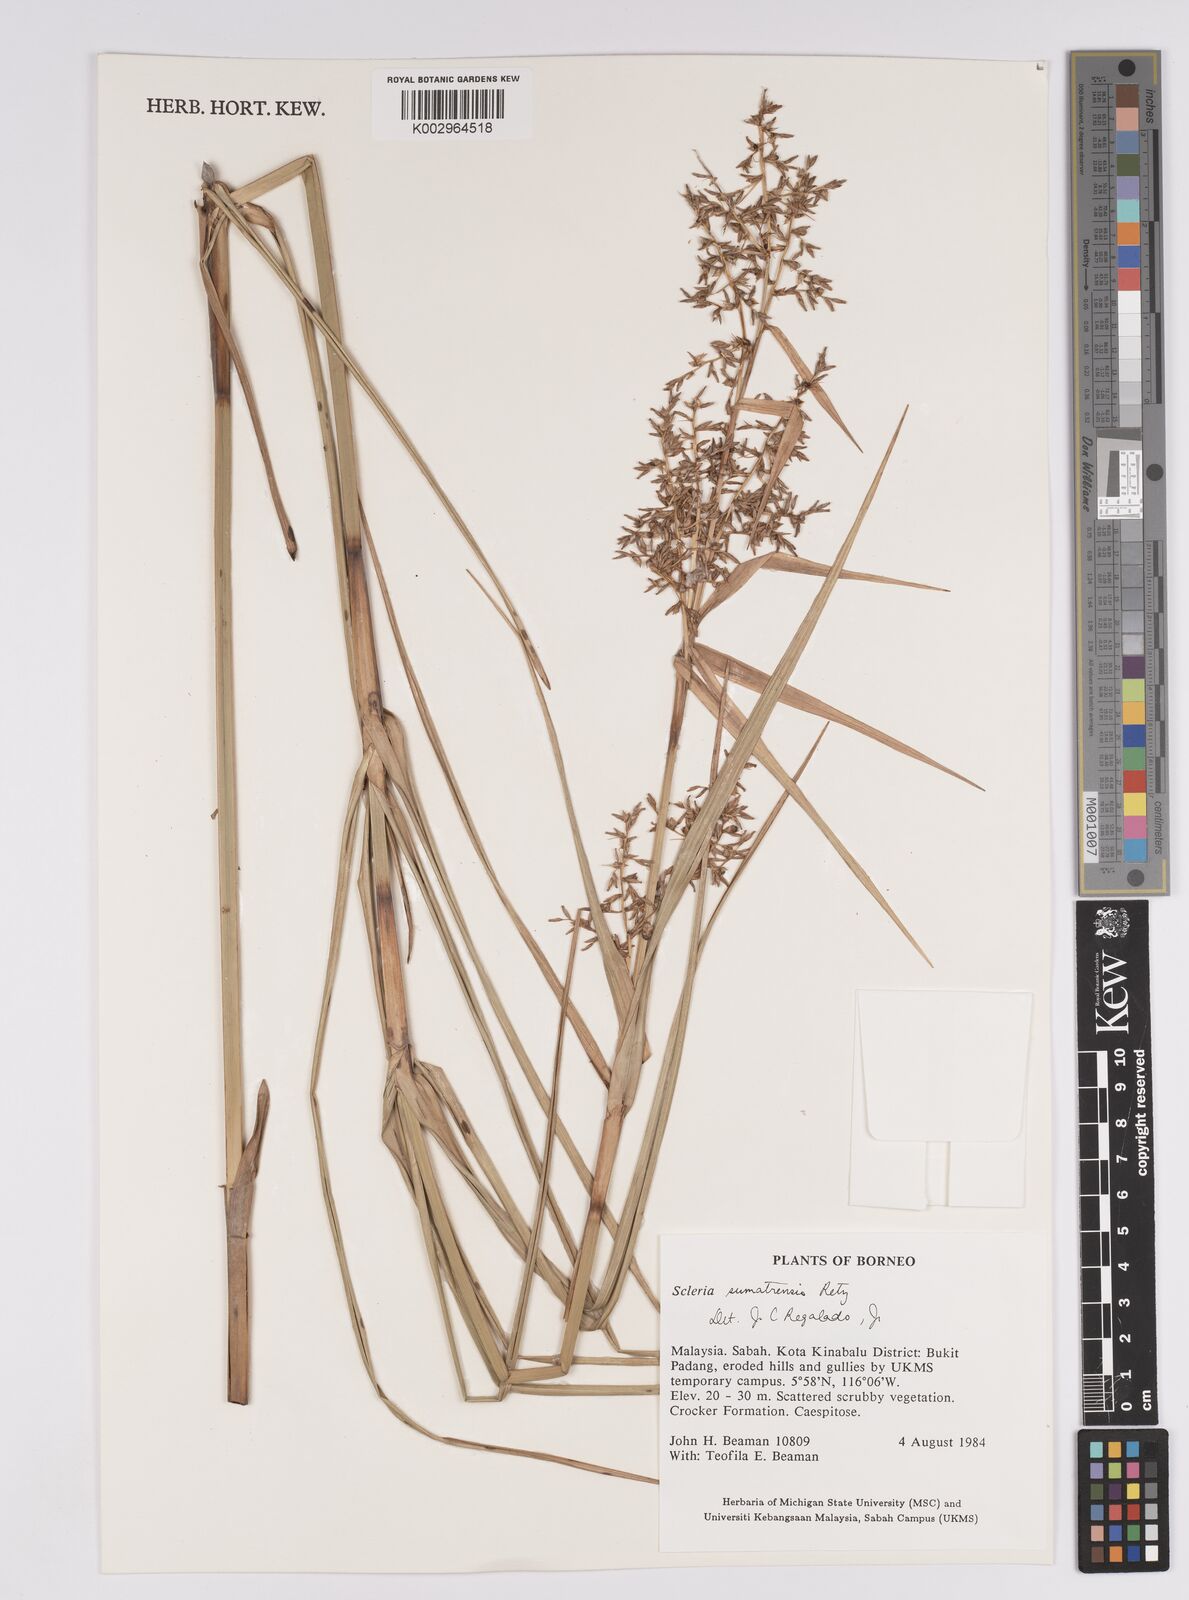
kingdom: Plantae
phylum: Tracheophyta
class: Liliopsida
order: Poales
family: Cyperaceae
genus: Scleria
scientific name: Scleria sumatrensis
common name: Sumatran scleria
